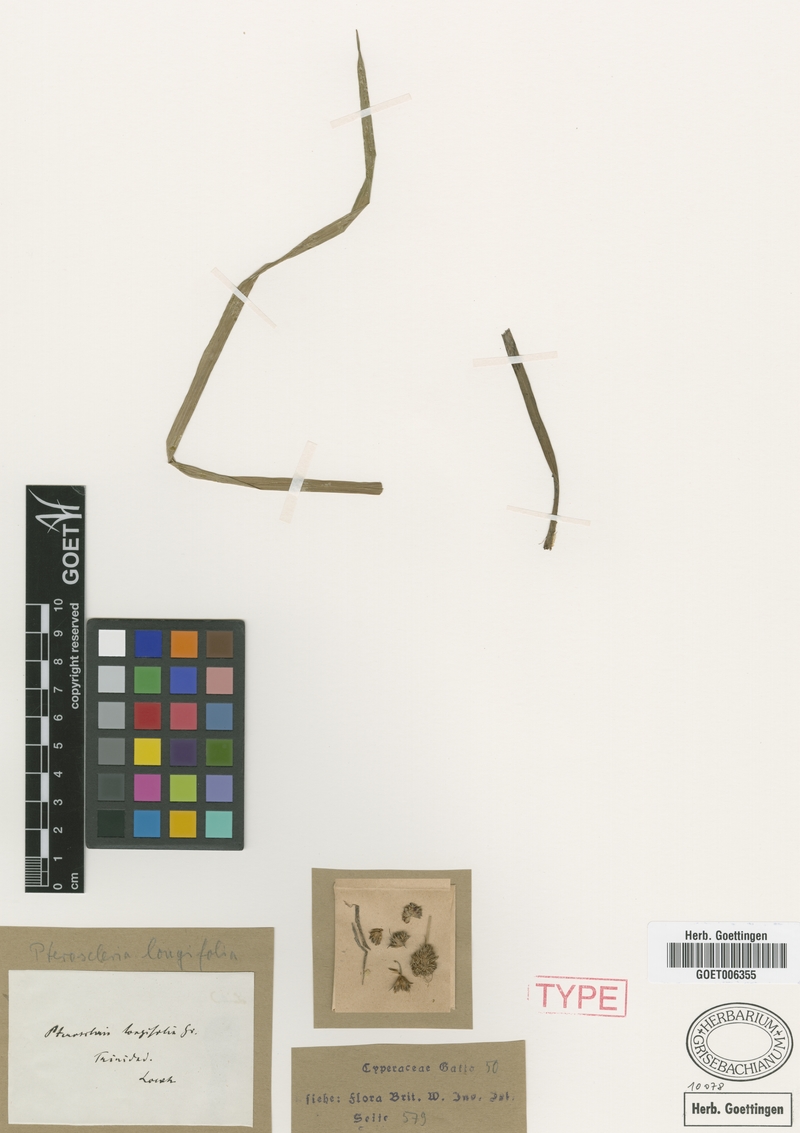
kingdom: Plantae
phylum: Tracheophyta
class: Liliopsida
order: Poales
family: Cyperaceae
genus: Diplacrum
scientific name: Diplacrum capitatum
